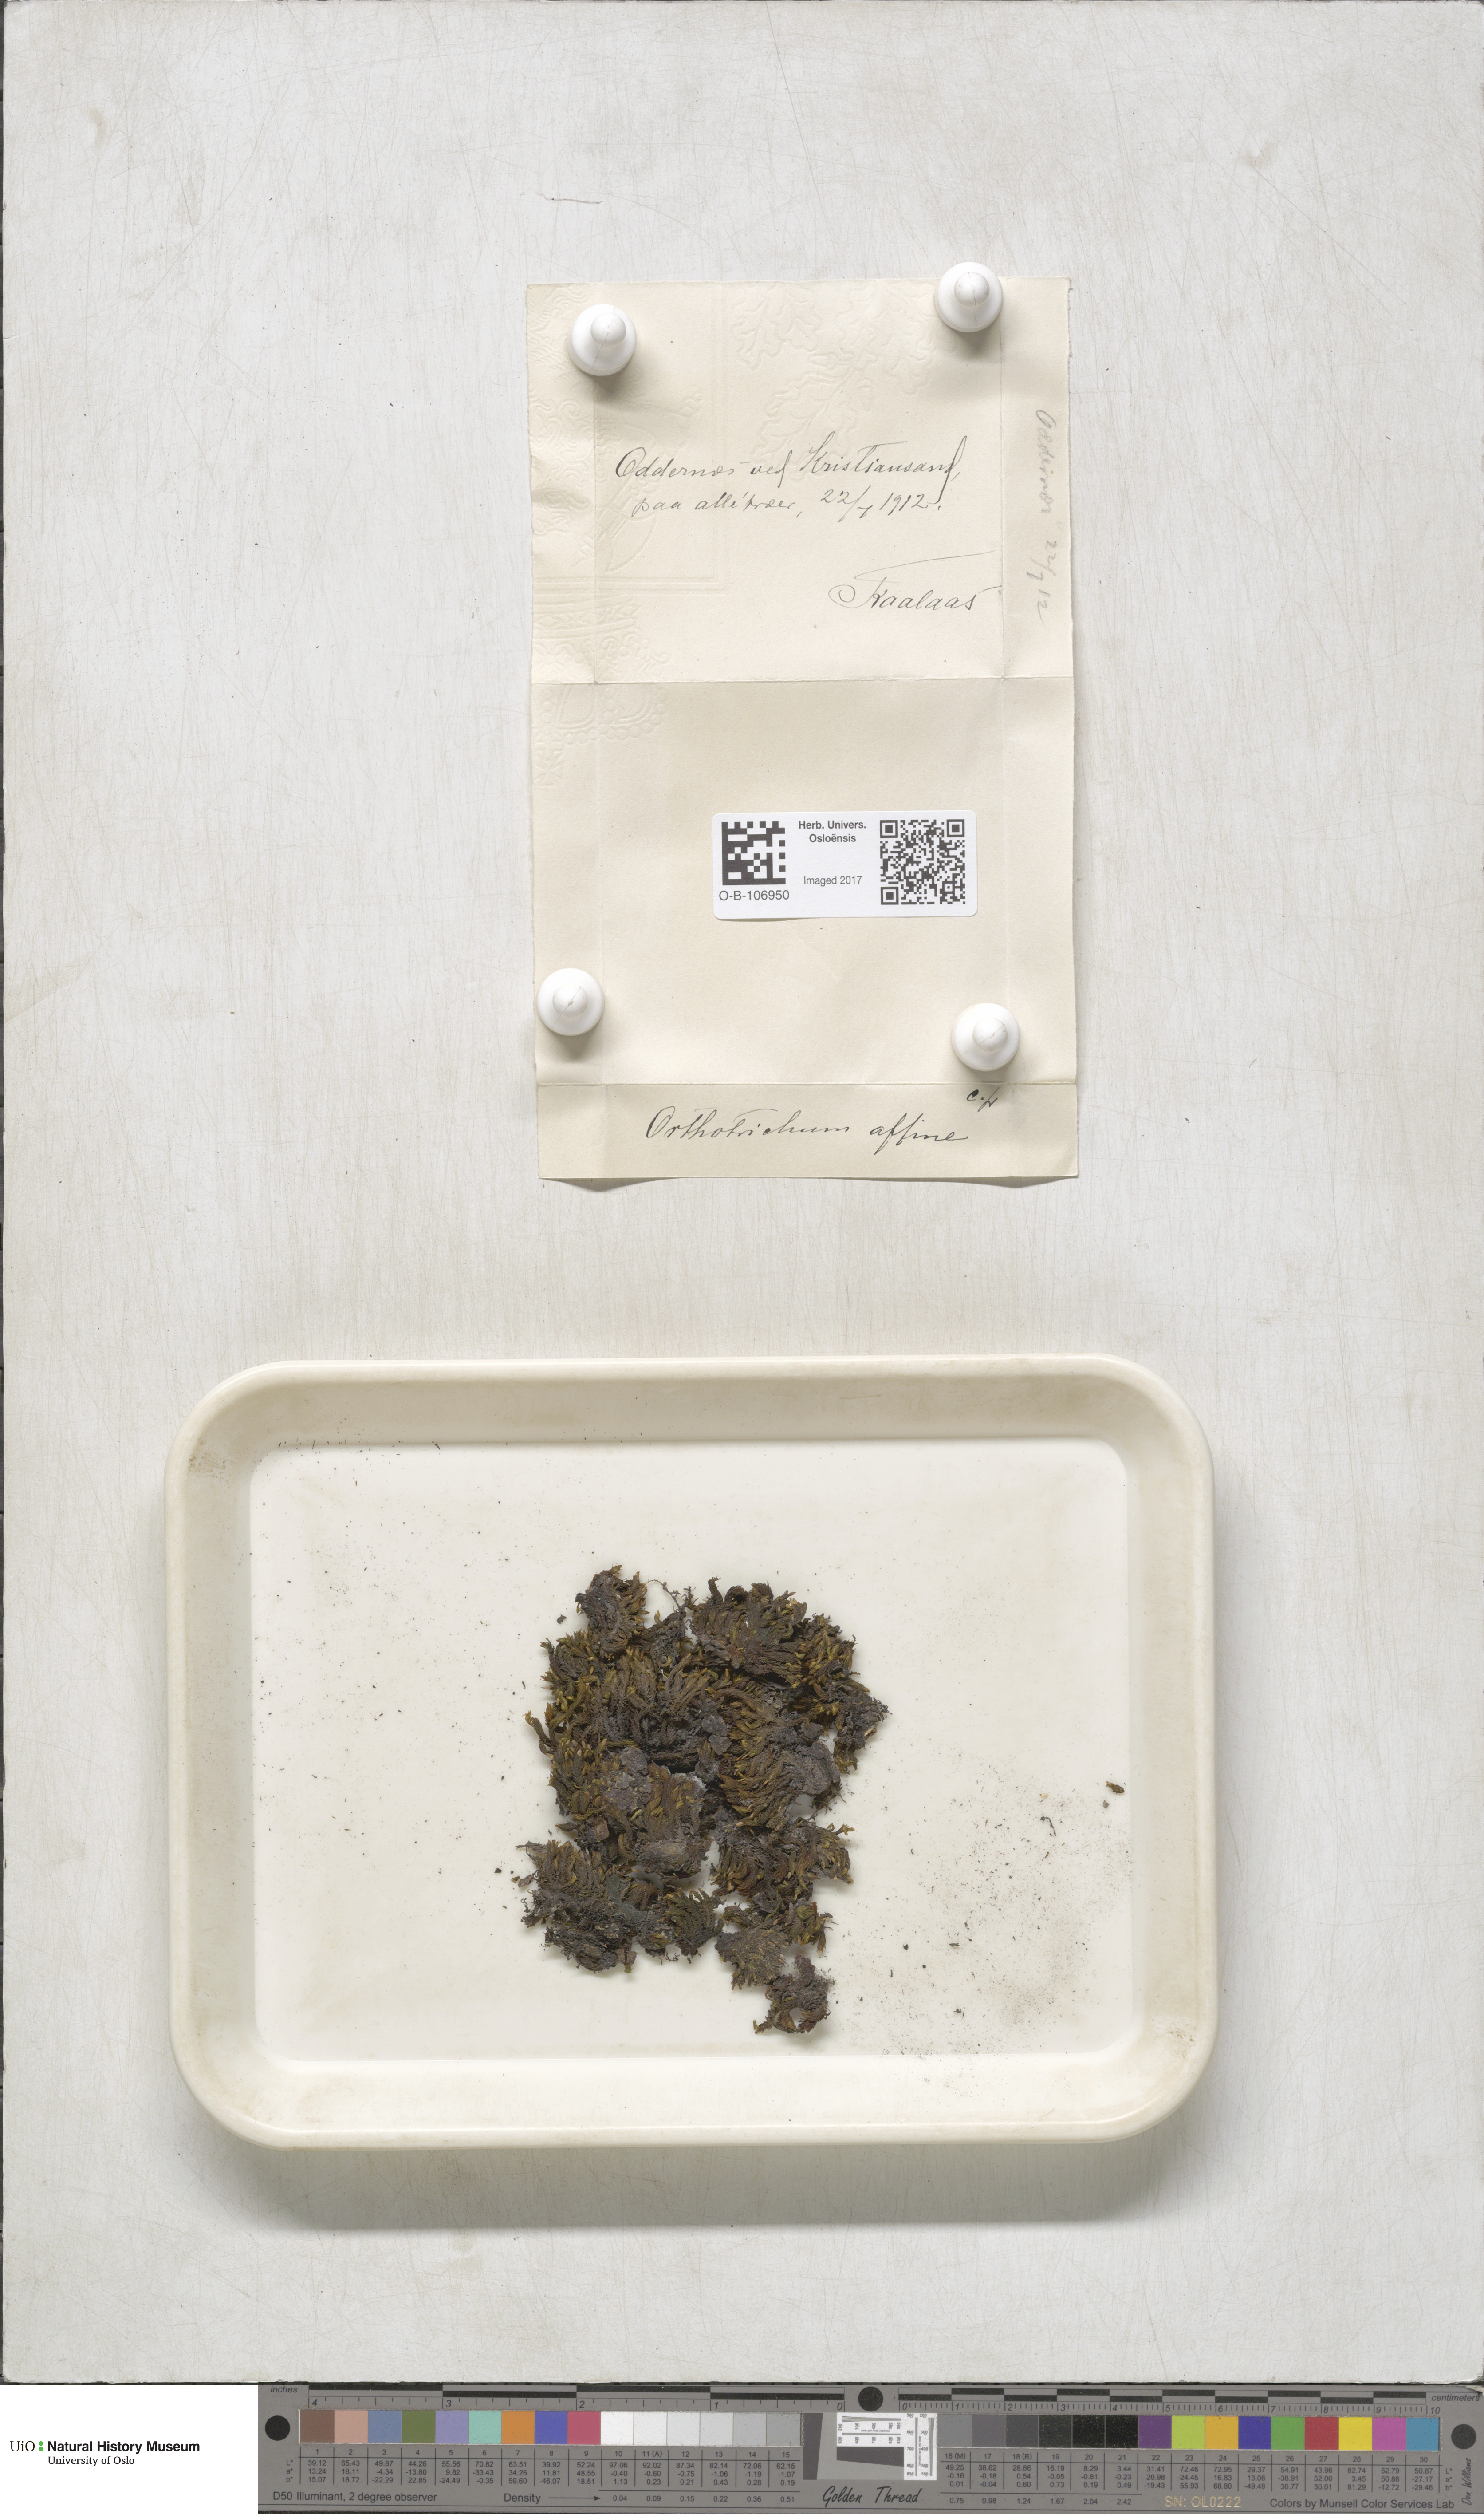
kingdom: Plantae
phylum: Bryophyta
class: Bryopsida
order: Orthotrichales
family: Orthotrichaceae
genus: Lewinskya
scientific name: Lewinskya affinis
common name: Wood bristle-moss
